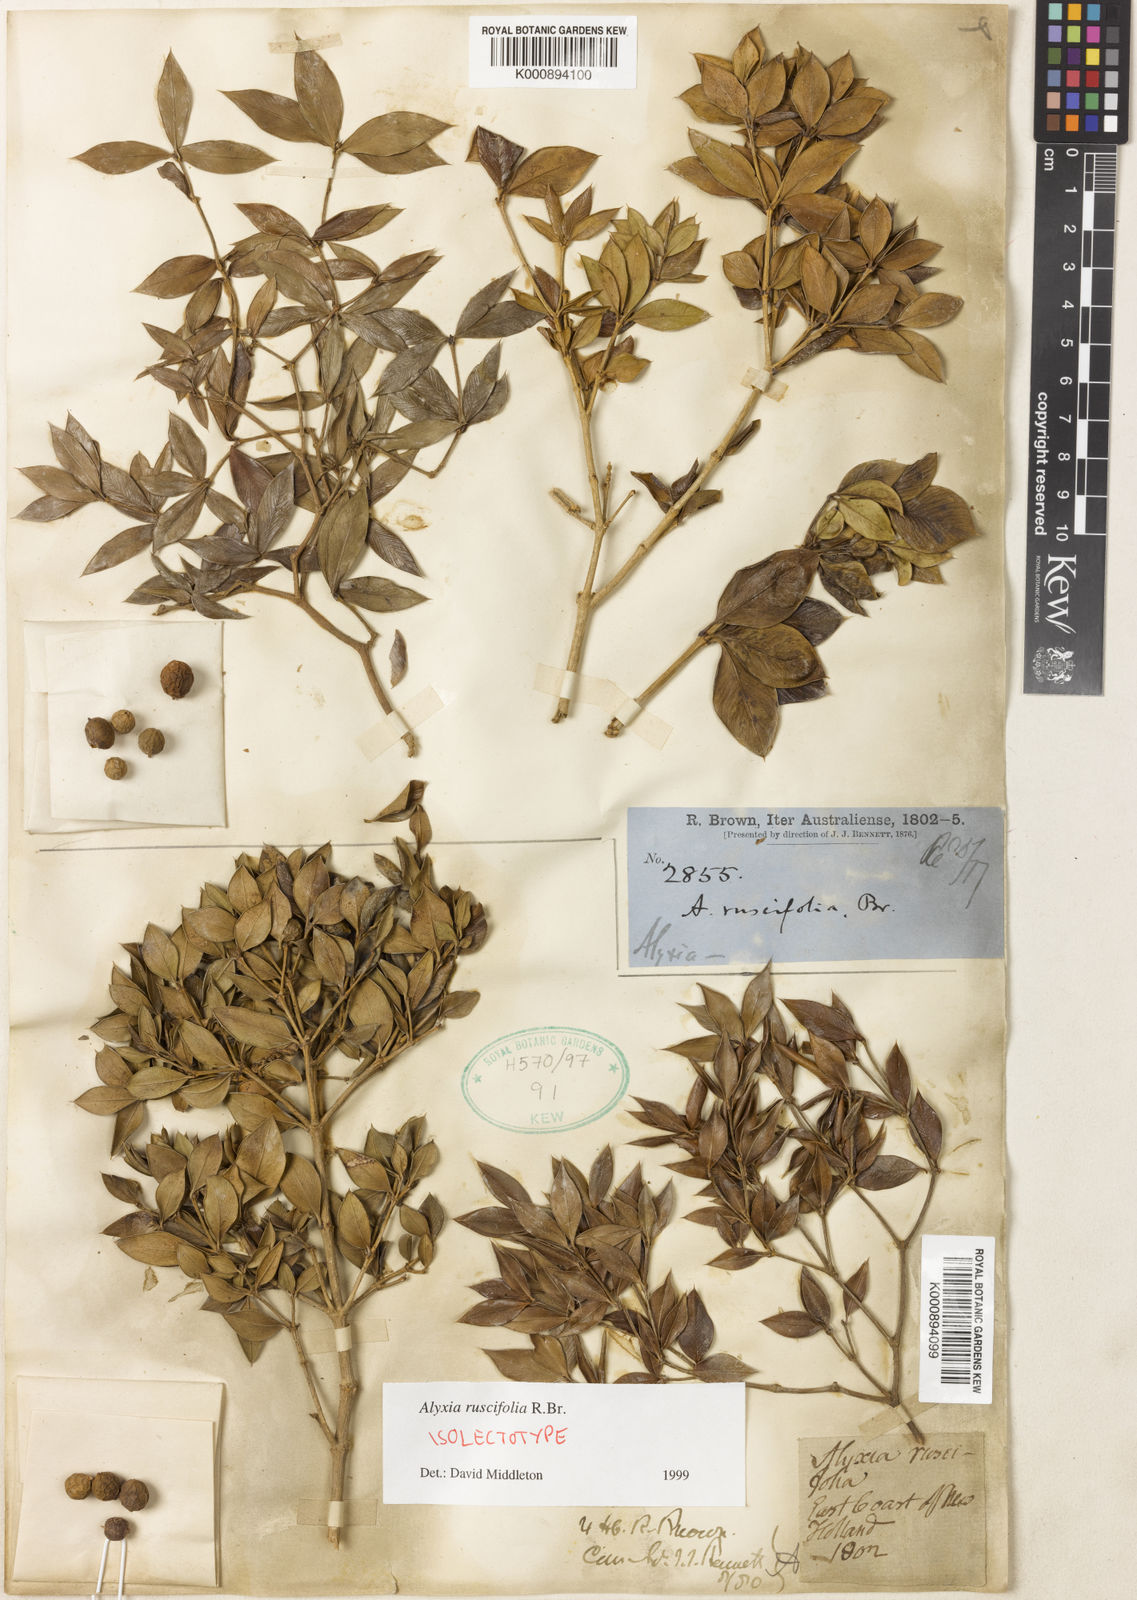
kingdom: Plantae
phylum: Tracheophyta
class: Magnoliopsida
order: Gentianales
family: Apocynaceae
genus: Alyxia
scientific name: Alyxia ruscifolia
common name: Chainfruit
